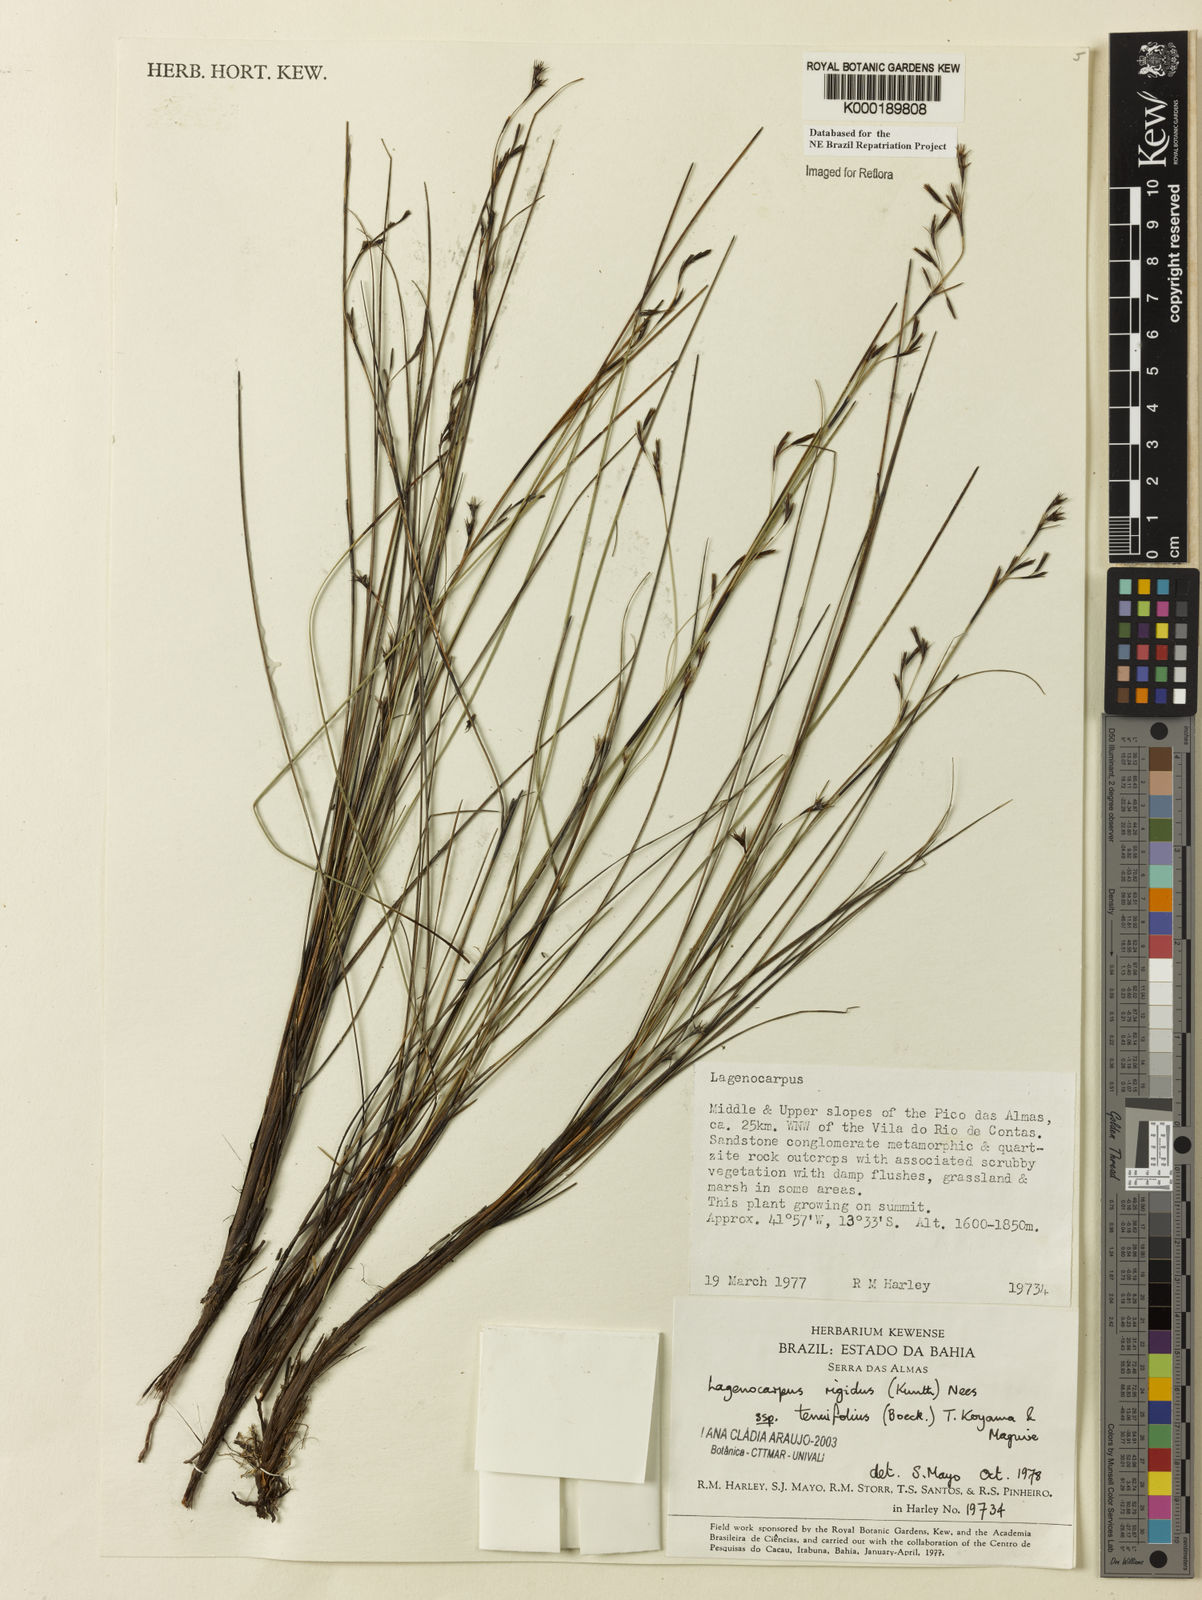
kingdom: Plantae
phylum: Tracheophyta
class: Liliopsida
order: Poales
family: Cyperaceae
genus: Lagenocarpus
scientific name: Lagenocarpus rigidus
